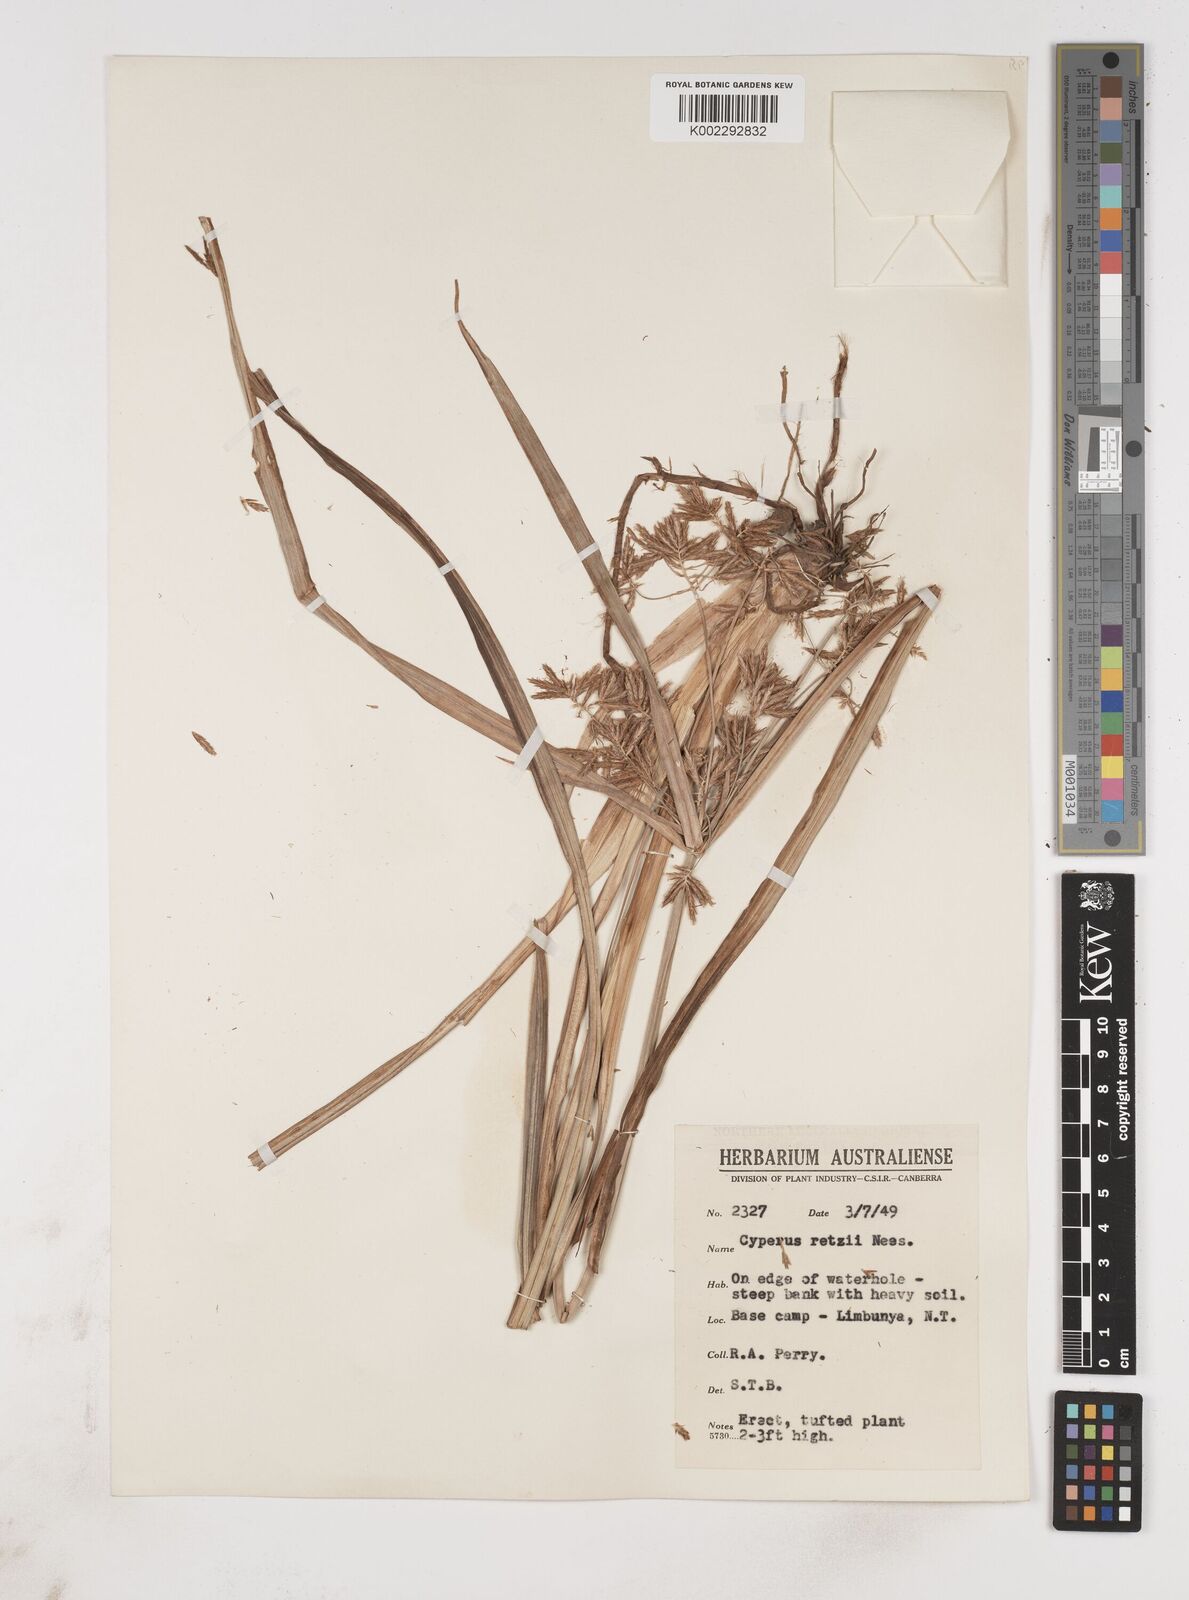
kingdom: Plantae
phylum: Tracheophyta
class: Liliopsida
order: Poales
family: Cyperaceae
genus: Cyperus
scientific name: Cyperus bifax
